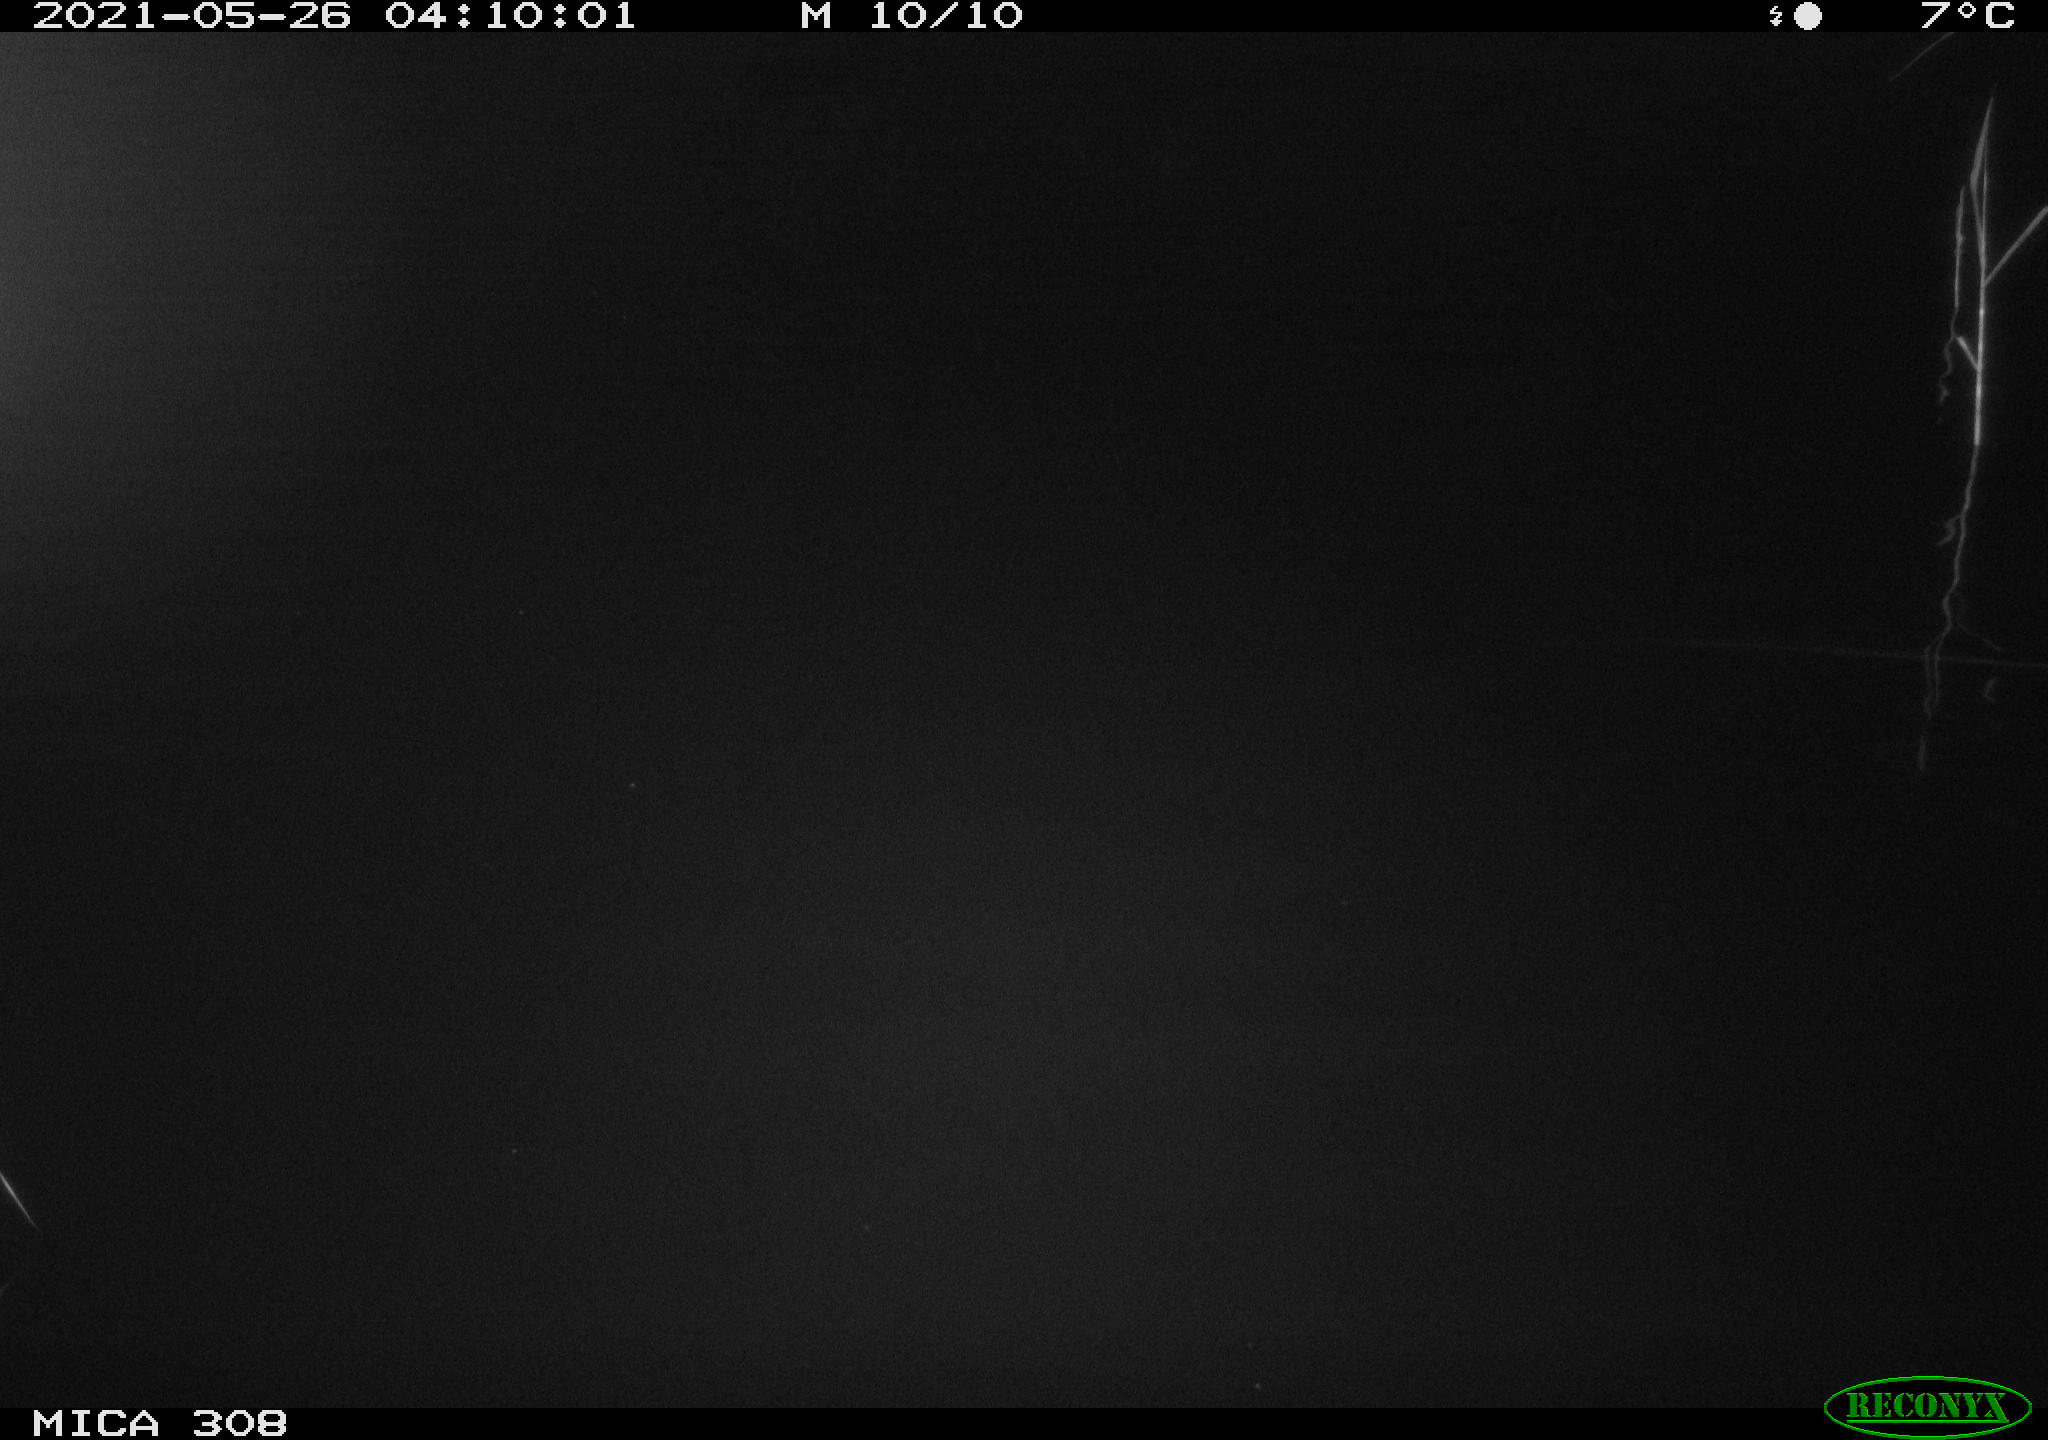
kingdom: Animalia
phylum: Chordata
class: Aves
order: Anseriformes
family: Anatidae
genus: Anas
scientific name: Anas platyrhynchos
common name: Mallard
